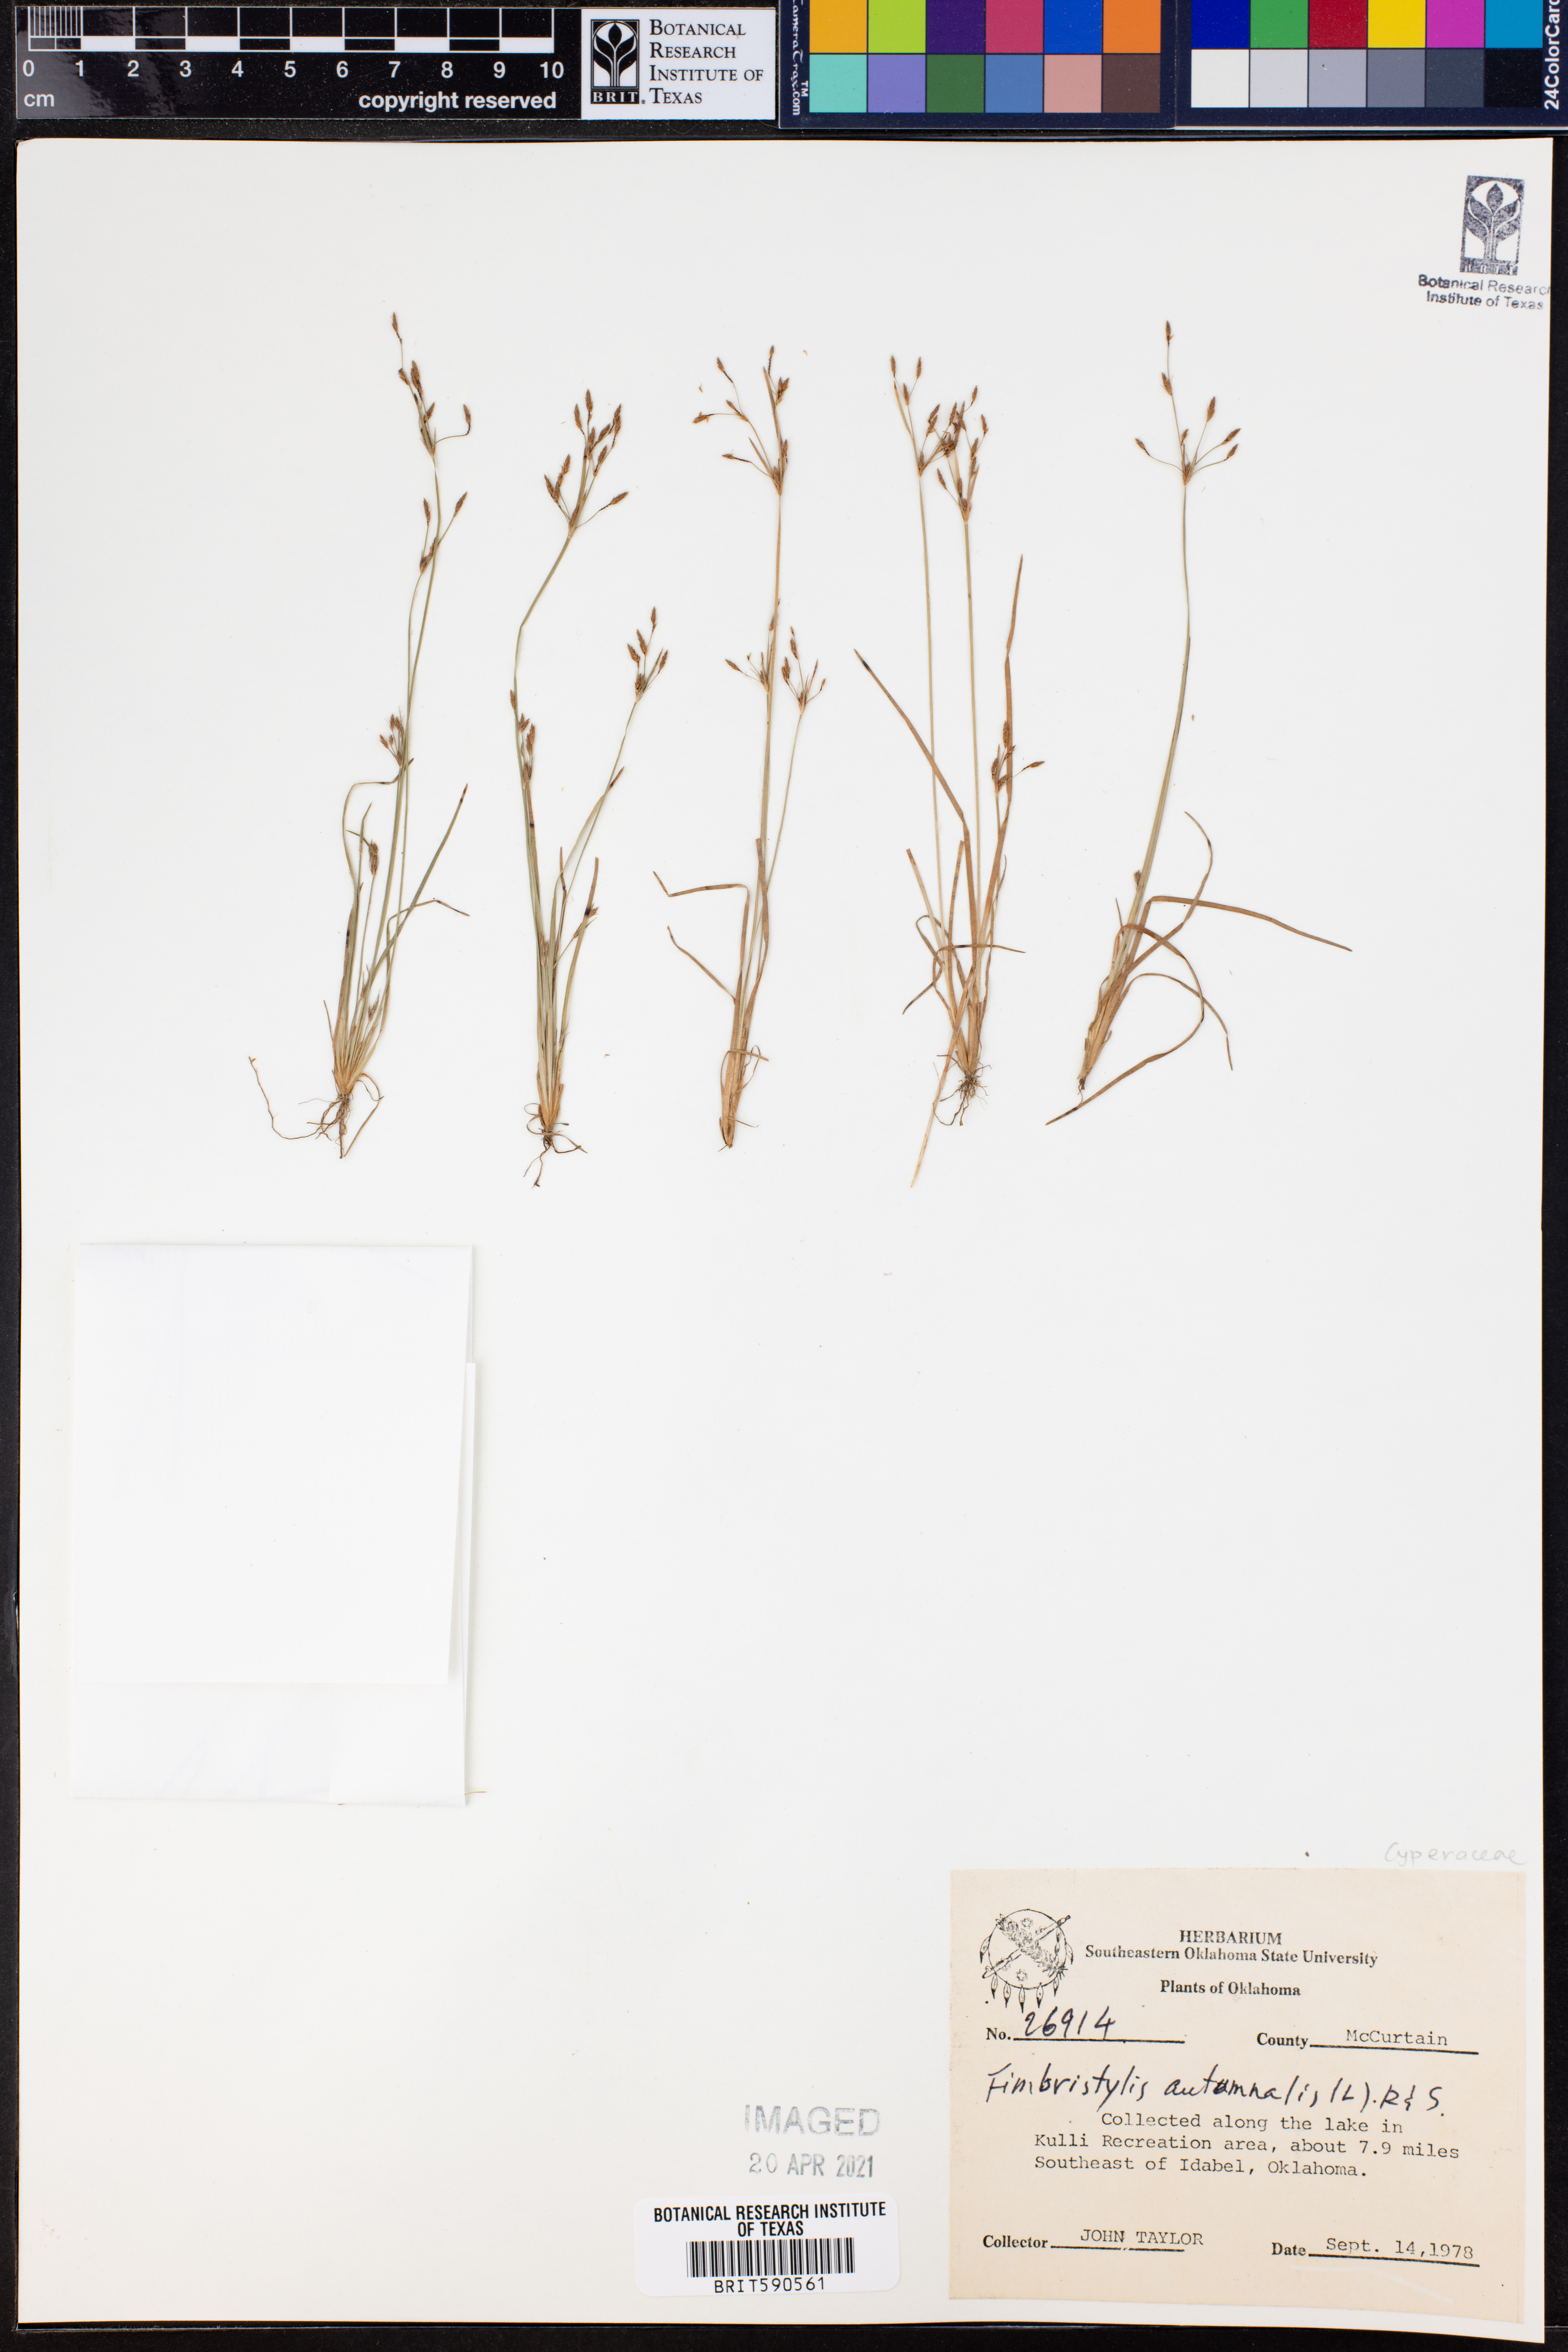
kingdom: Plantae
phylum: Tracheophyta
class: Liliopsida
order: Poales
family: Cyperaceae
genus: Fimbristylis
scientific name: Fimbristylis autumnalis
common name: Slender fimbristylis
